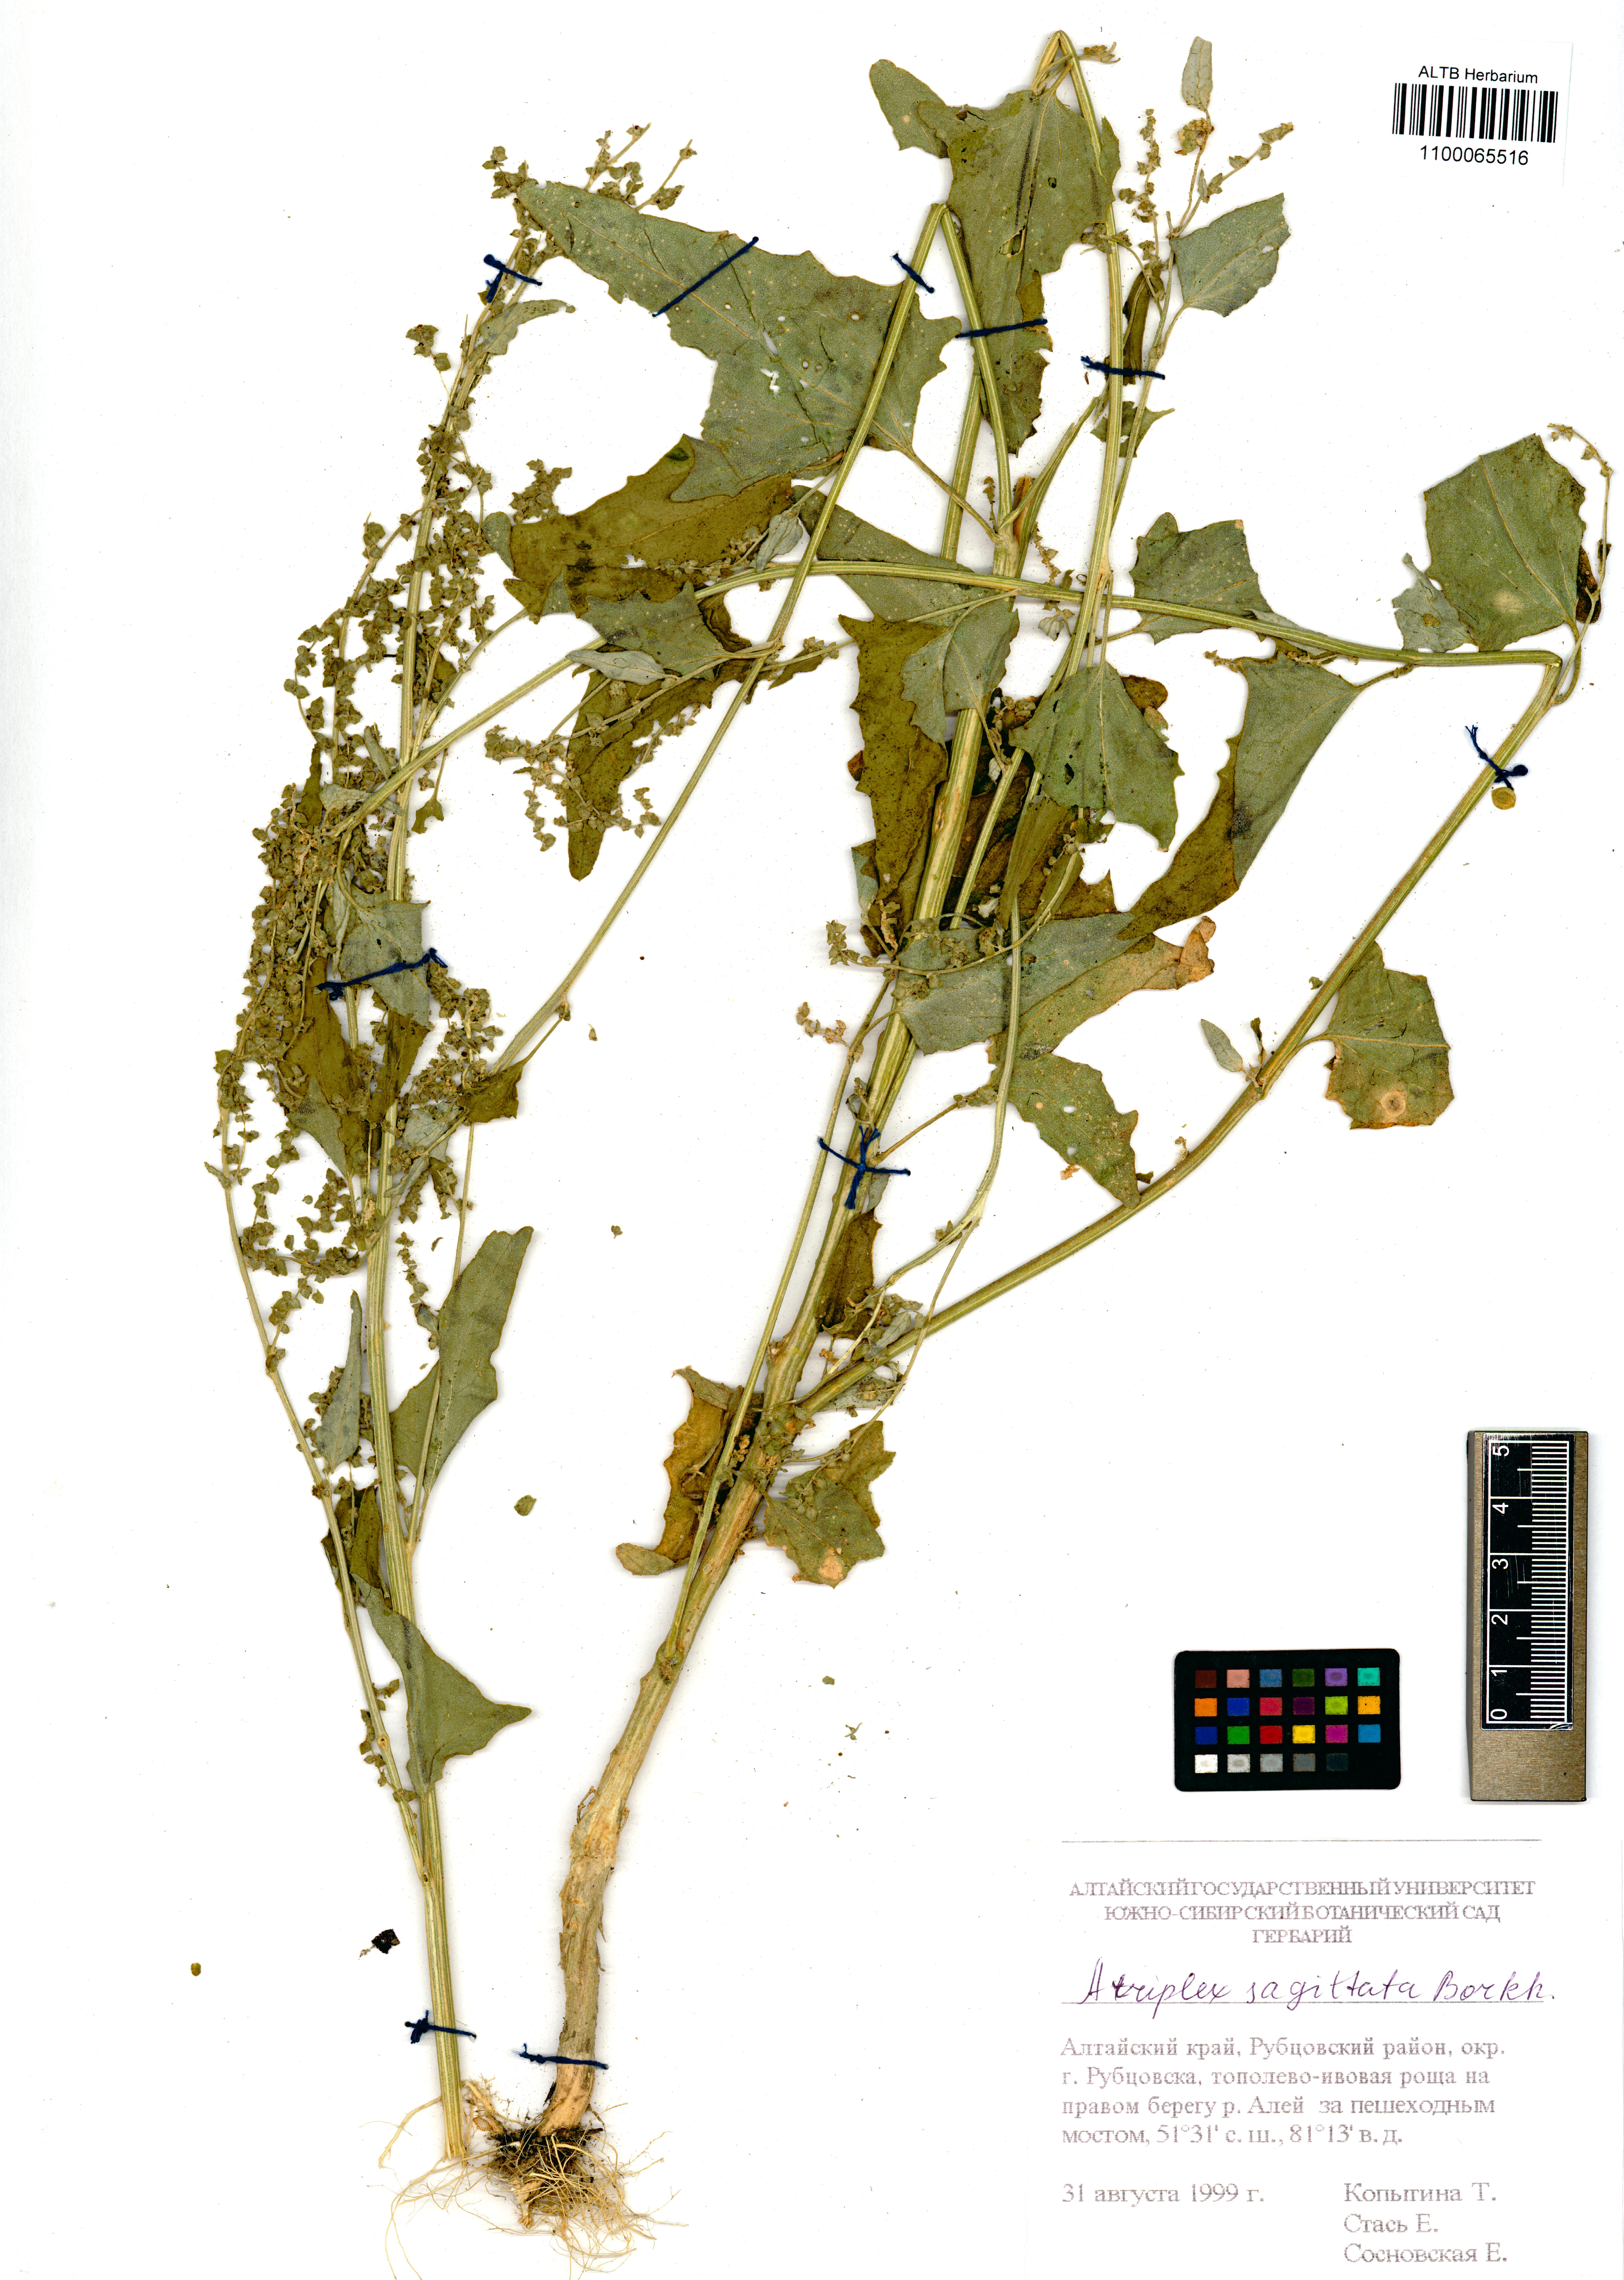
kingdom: Plantae
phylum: Tracheophyta
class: Magnoliopsida
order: Caryophyllales
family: Amaranthaceae
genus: Atriplex
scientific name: Atriplex sagittata
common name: Purple orache
